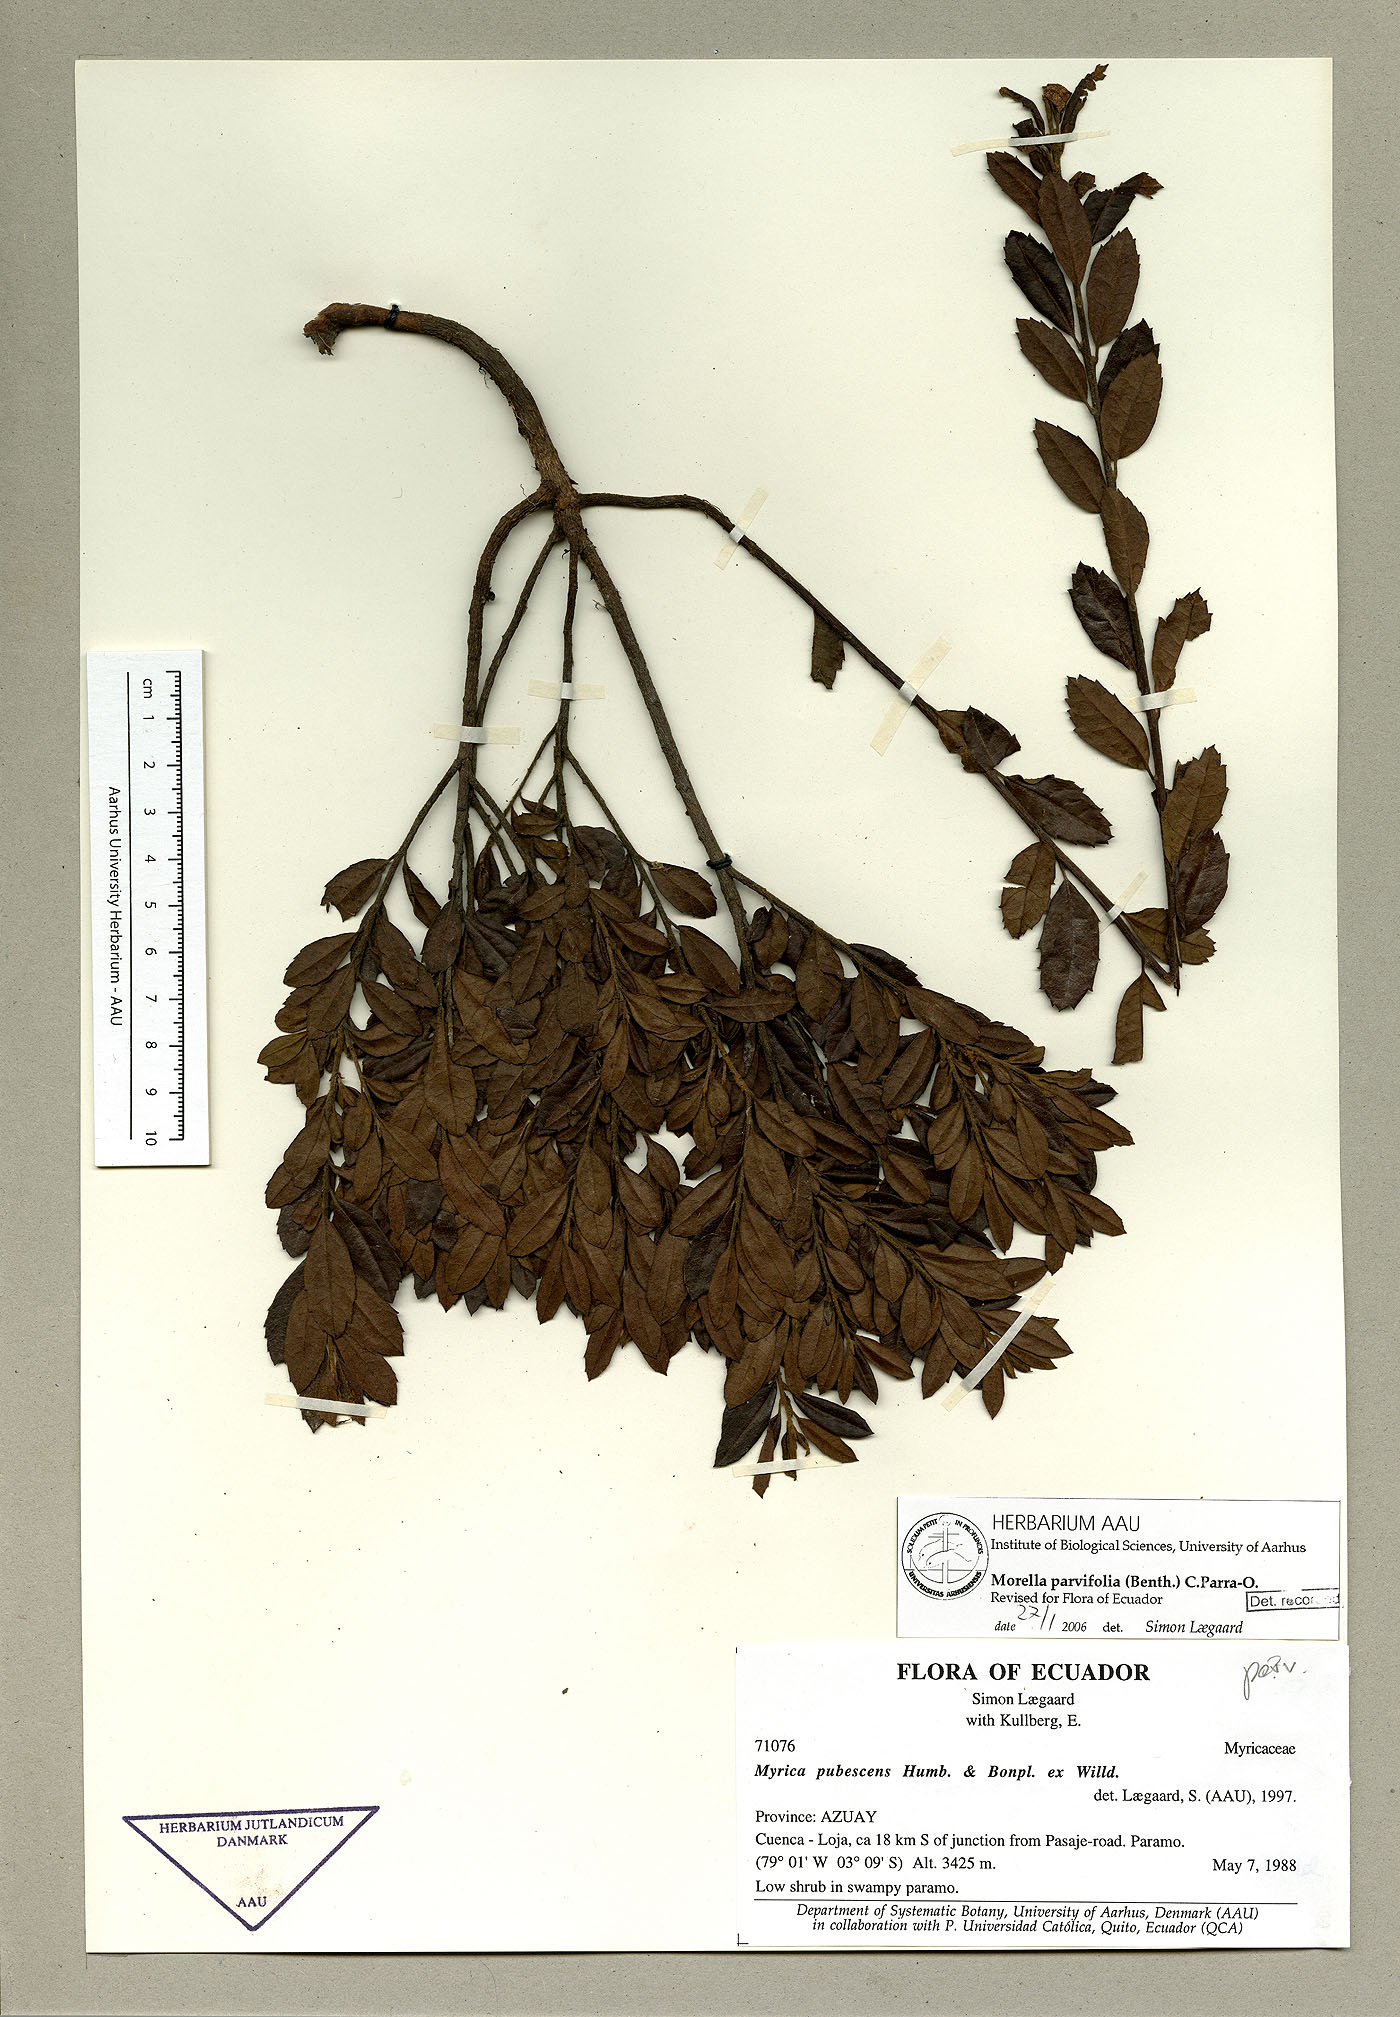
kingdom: Plantae
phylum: Tracheophyta
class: Magnoliopsida
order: Fagales
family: Myricaceae
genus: Morella
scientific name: Morella parvifolia
